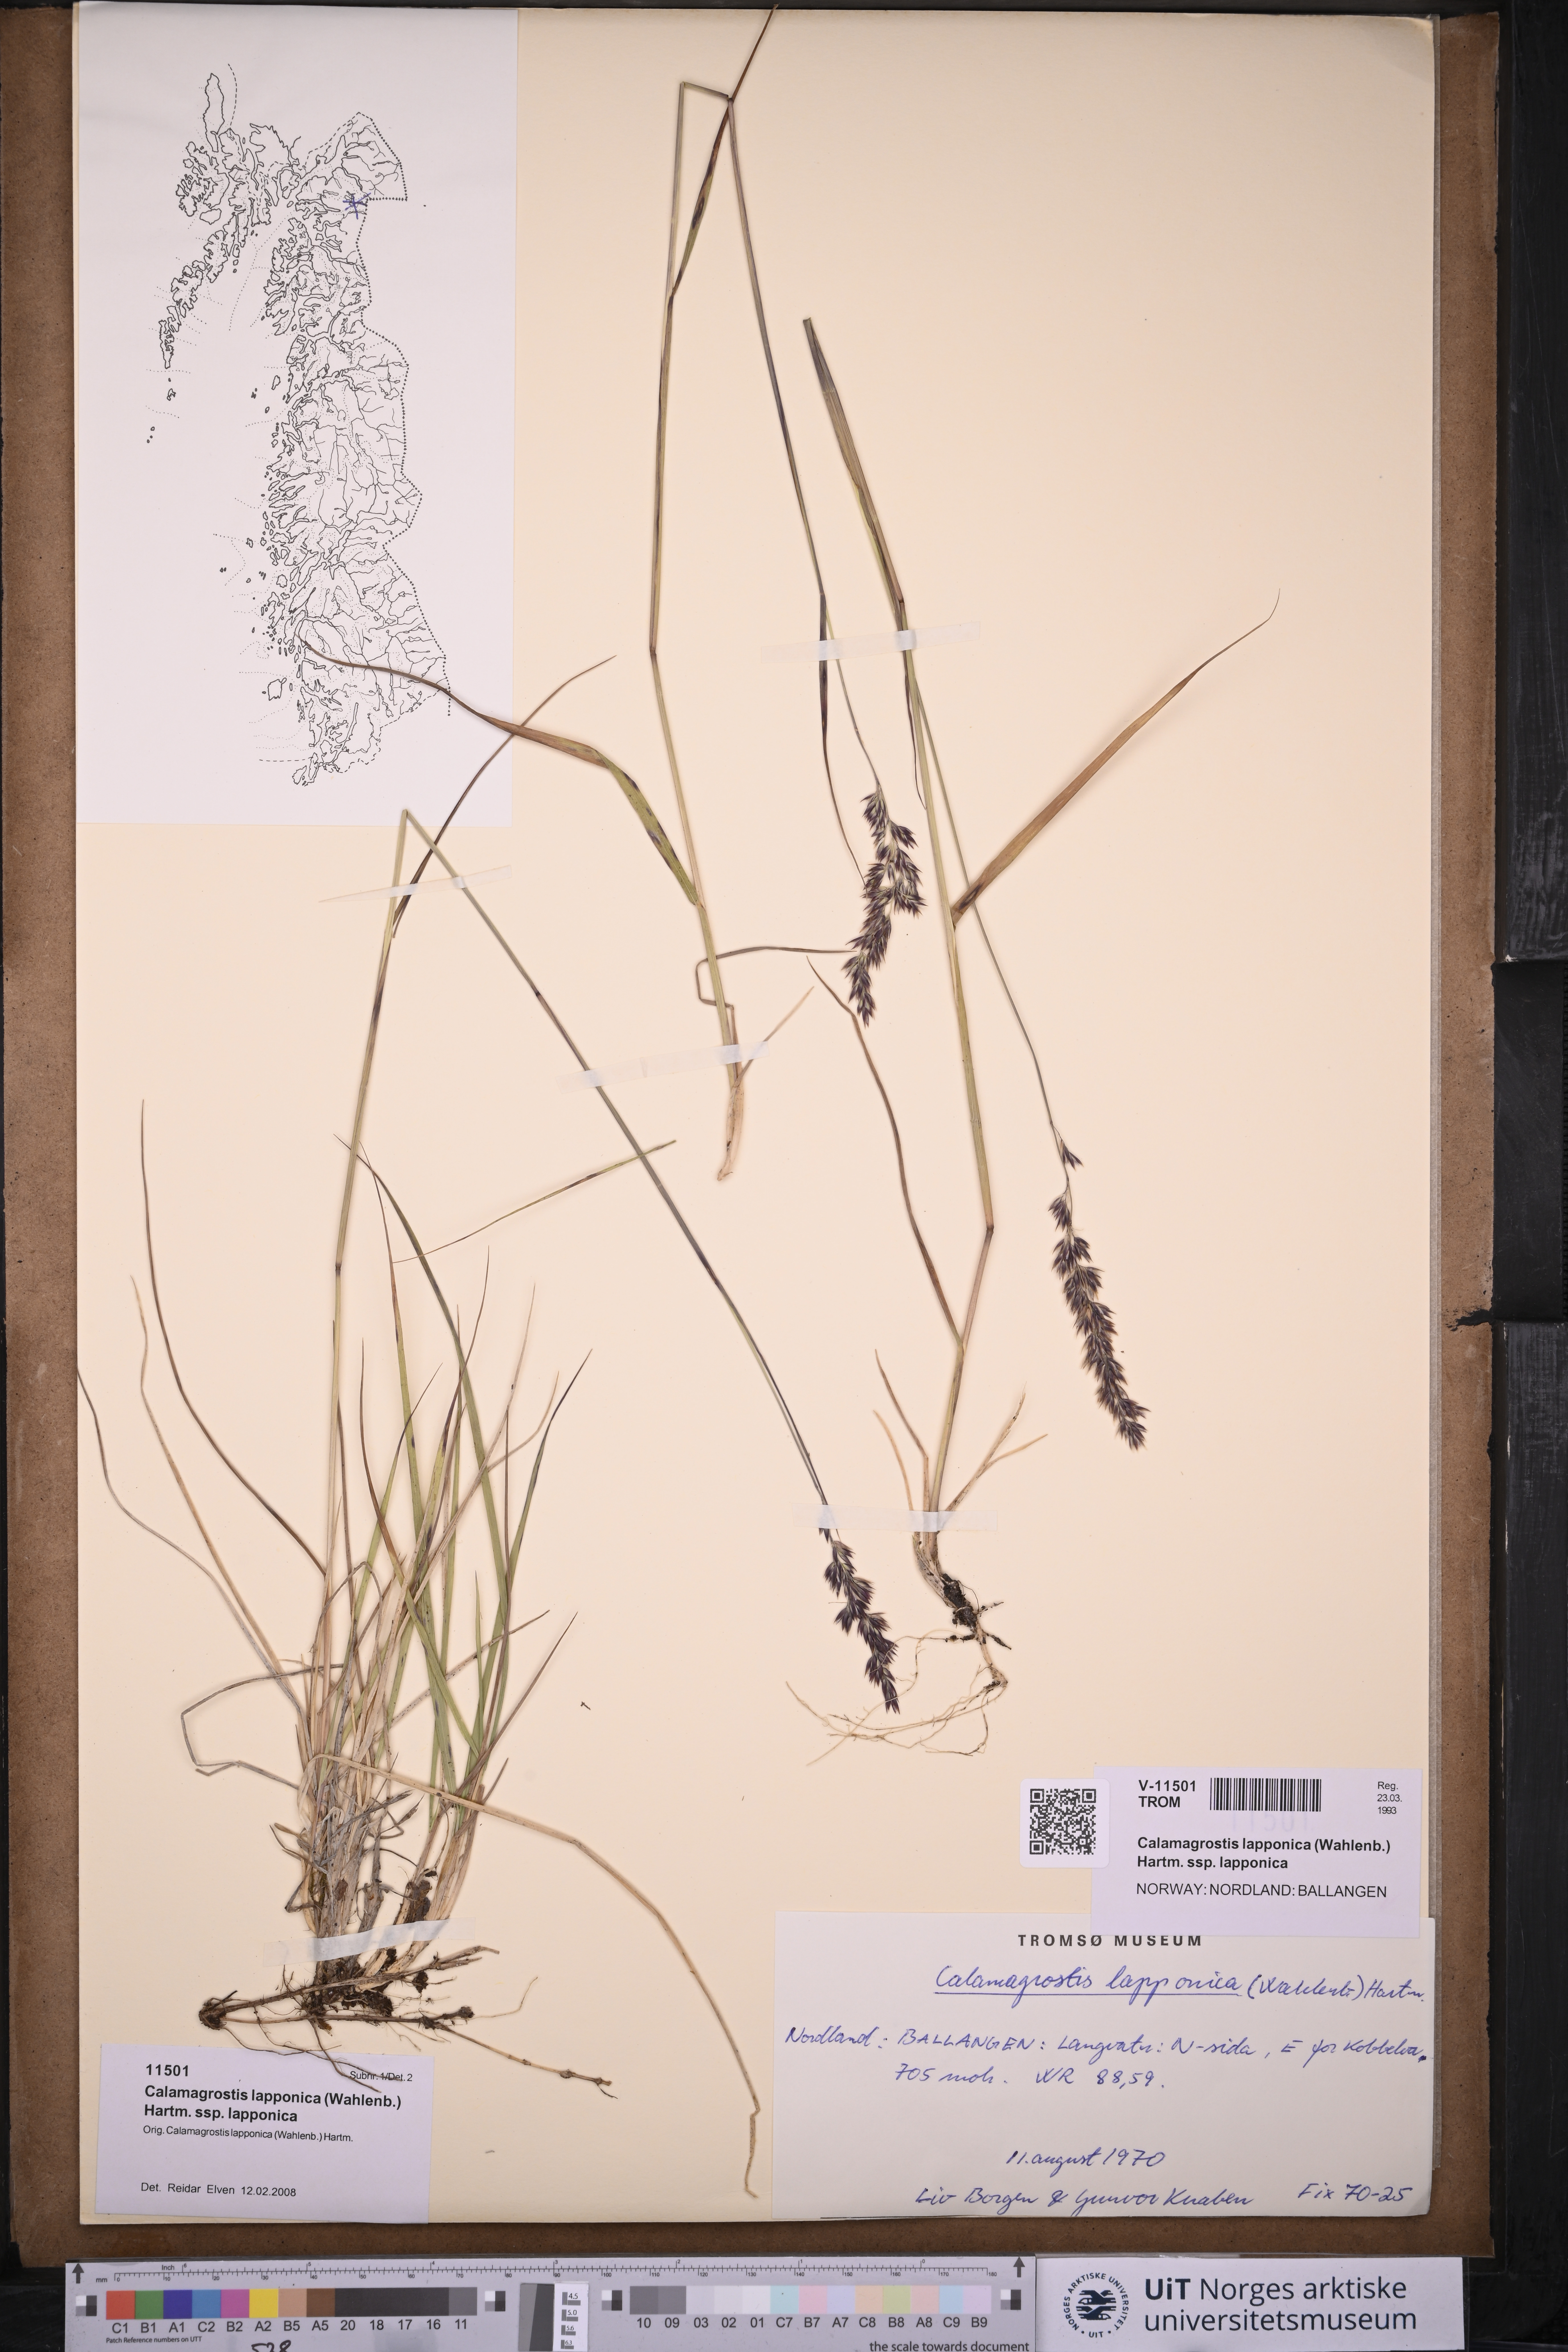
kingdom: Plantae
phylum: Tracheophyta
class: Liliopsida
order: Poales
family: Poaceae
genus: Calamagrostis
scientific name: Calamagrostis lapponica
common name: Lapland reedgrass
